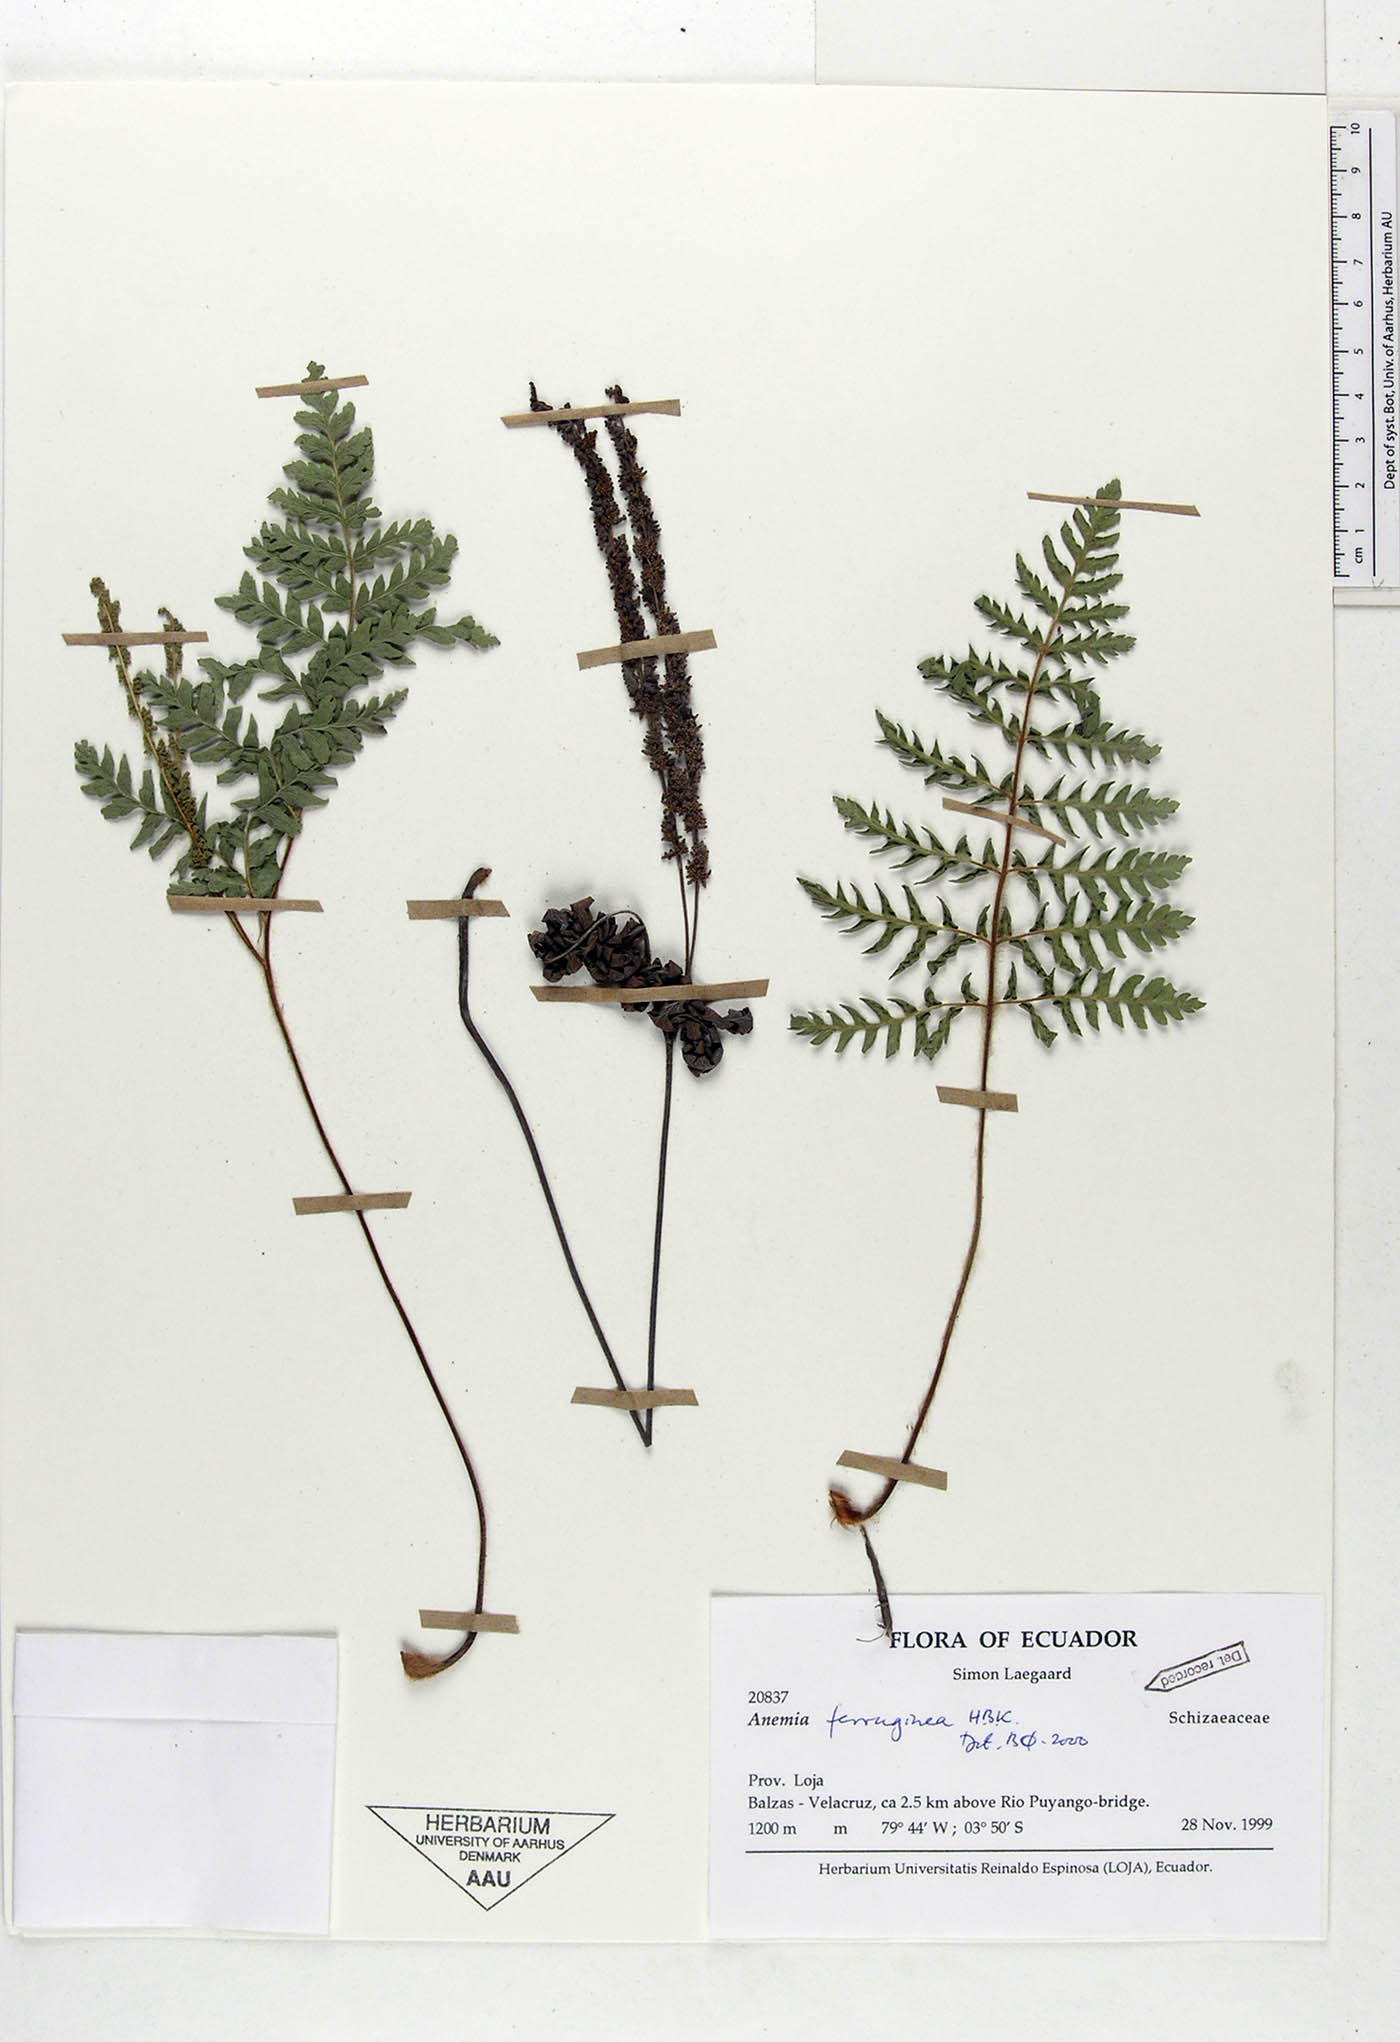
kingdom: Plantae
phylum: Tracheophyta
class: Polypodiopsida
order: Schizaeales
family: Anemiaceae
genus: Anemia
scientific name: Anemia ferruginea
